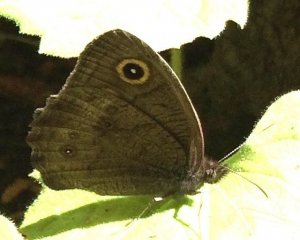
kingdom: Animalia
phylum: Arthropoda
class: Insecta
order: Lepidoptera
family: Nymphalidae
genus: Cercyonis
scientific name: Cercyonis pegala
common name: Common Wood-Nymph
